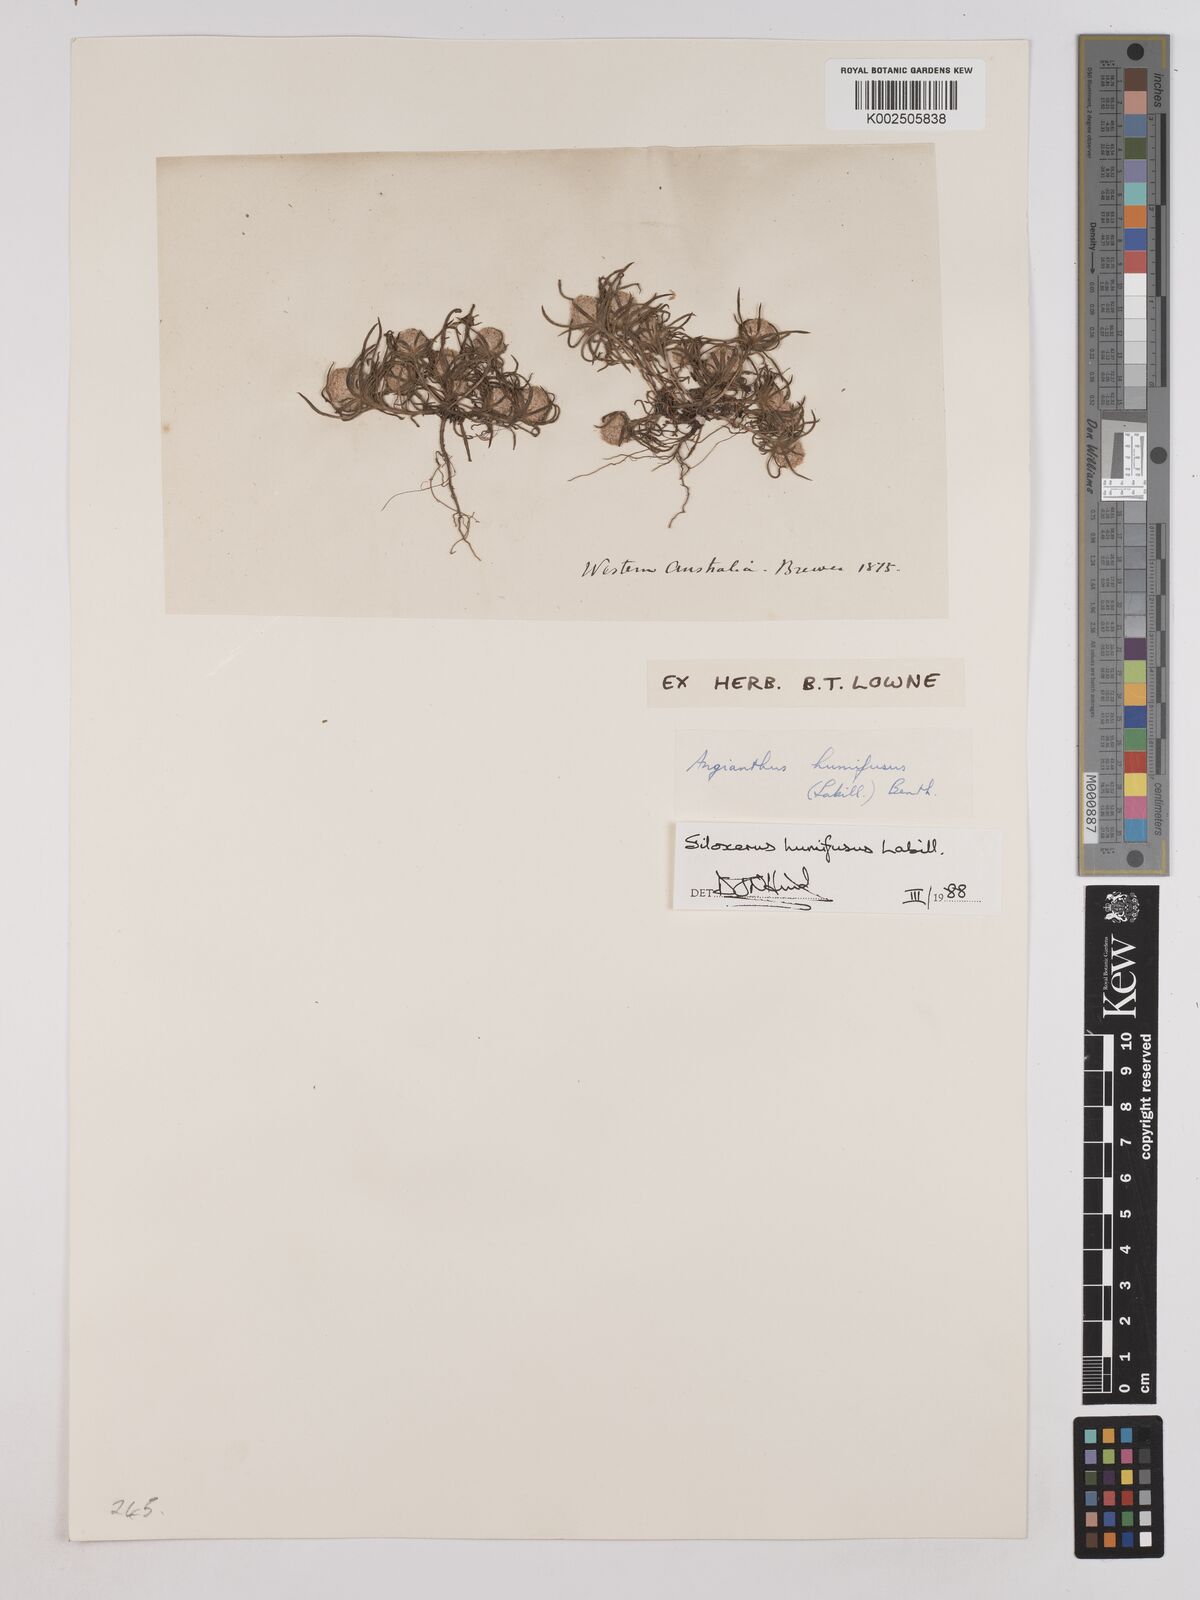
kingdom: Plantae
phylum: Tracheophyta
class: Magnoliopsida
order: Asterales
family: Asteraceae
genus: Siloxerus
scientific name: Siloxerus humifusus
